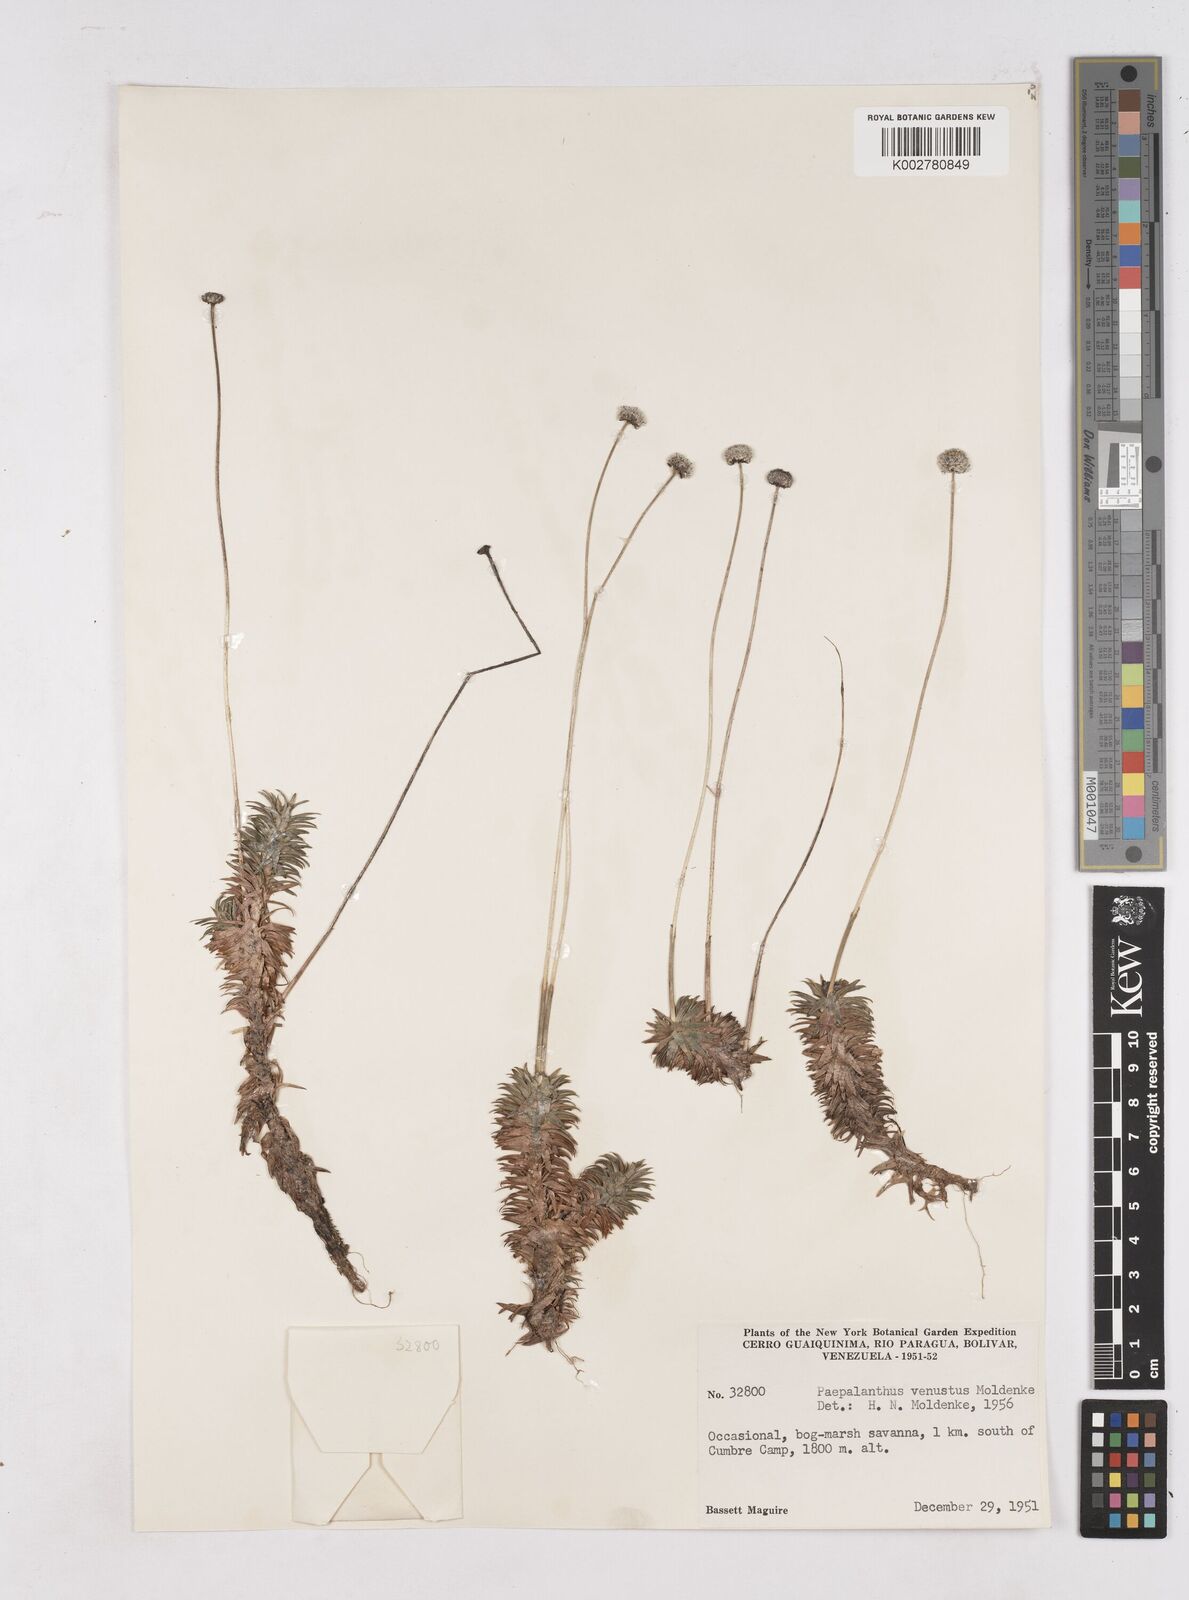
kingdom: Plantae
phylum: Tracheophyta
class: Liliopsida
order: Poales
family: Eriocaulaceae
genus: Paepalanthus
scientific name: Paepalanthus venustus
